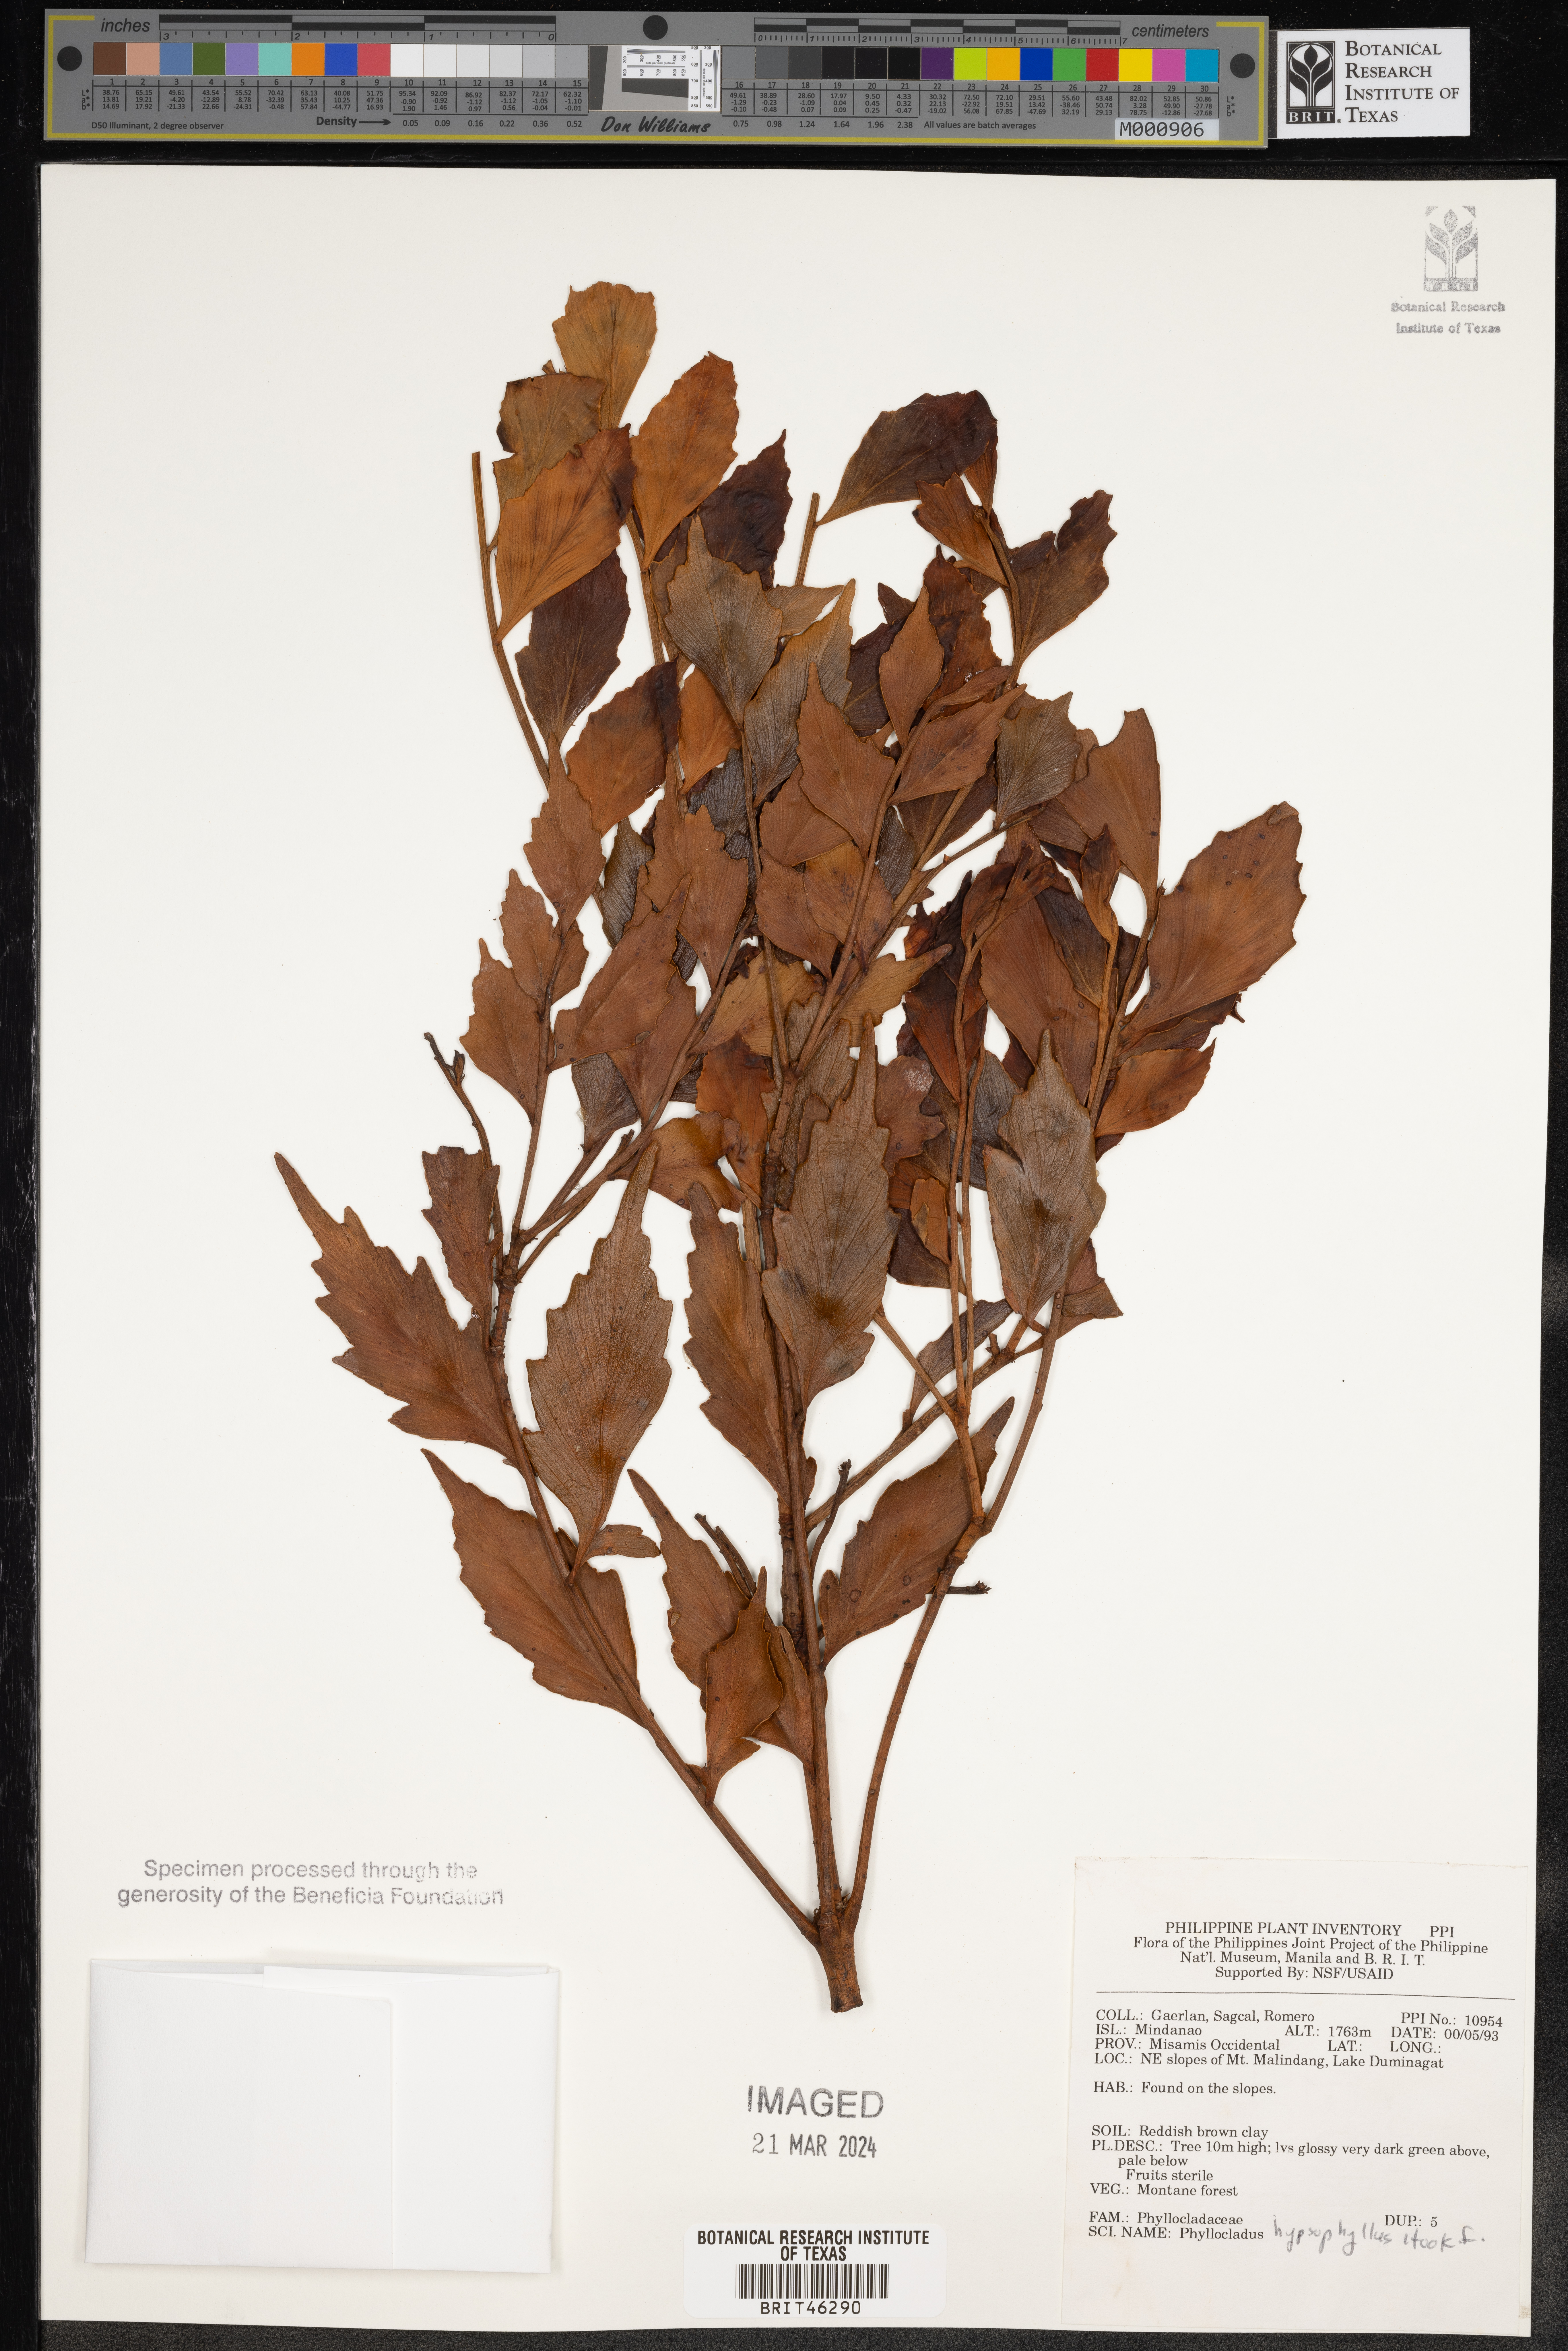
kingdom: Plantae
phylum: Tracheophyta
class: Pinopsida
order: Pinales
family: Phyllocladaceae
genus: Phyllocladus
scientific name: Phyllocladus hypophyllus
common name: Celery pine
